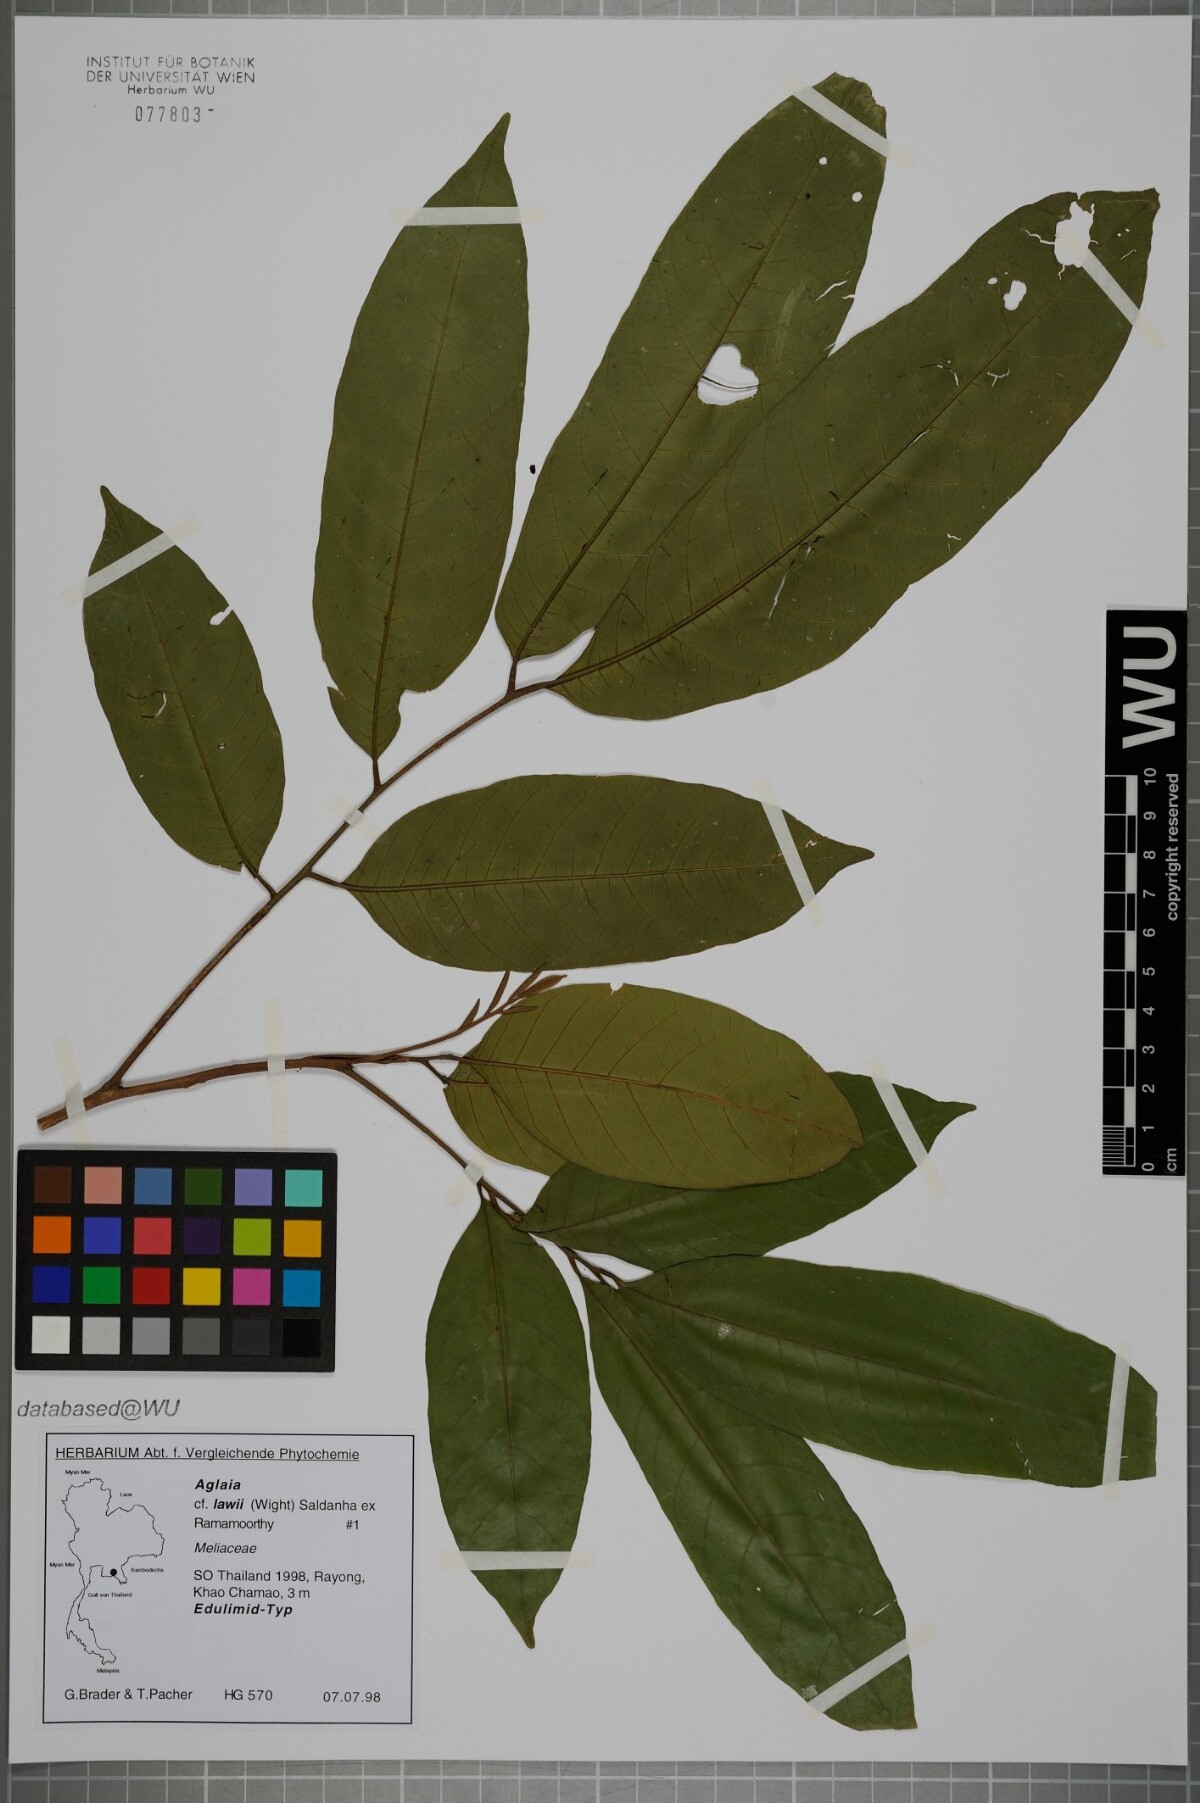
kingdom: Plantae
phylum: Tracheophyta
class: Magnoliopsida
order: Sapindales
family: Meliaceae
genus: Aglaia
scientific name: Aglaia lawii
